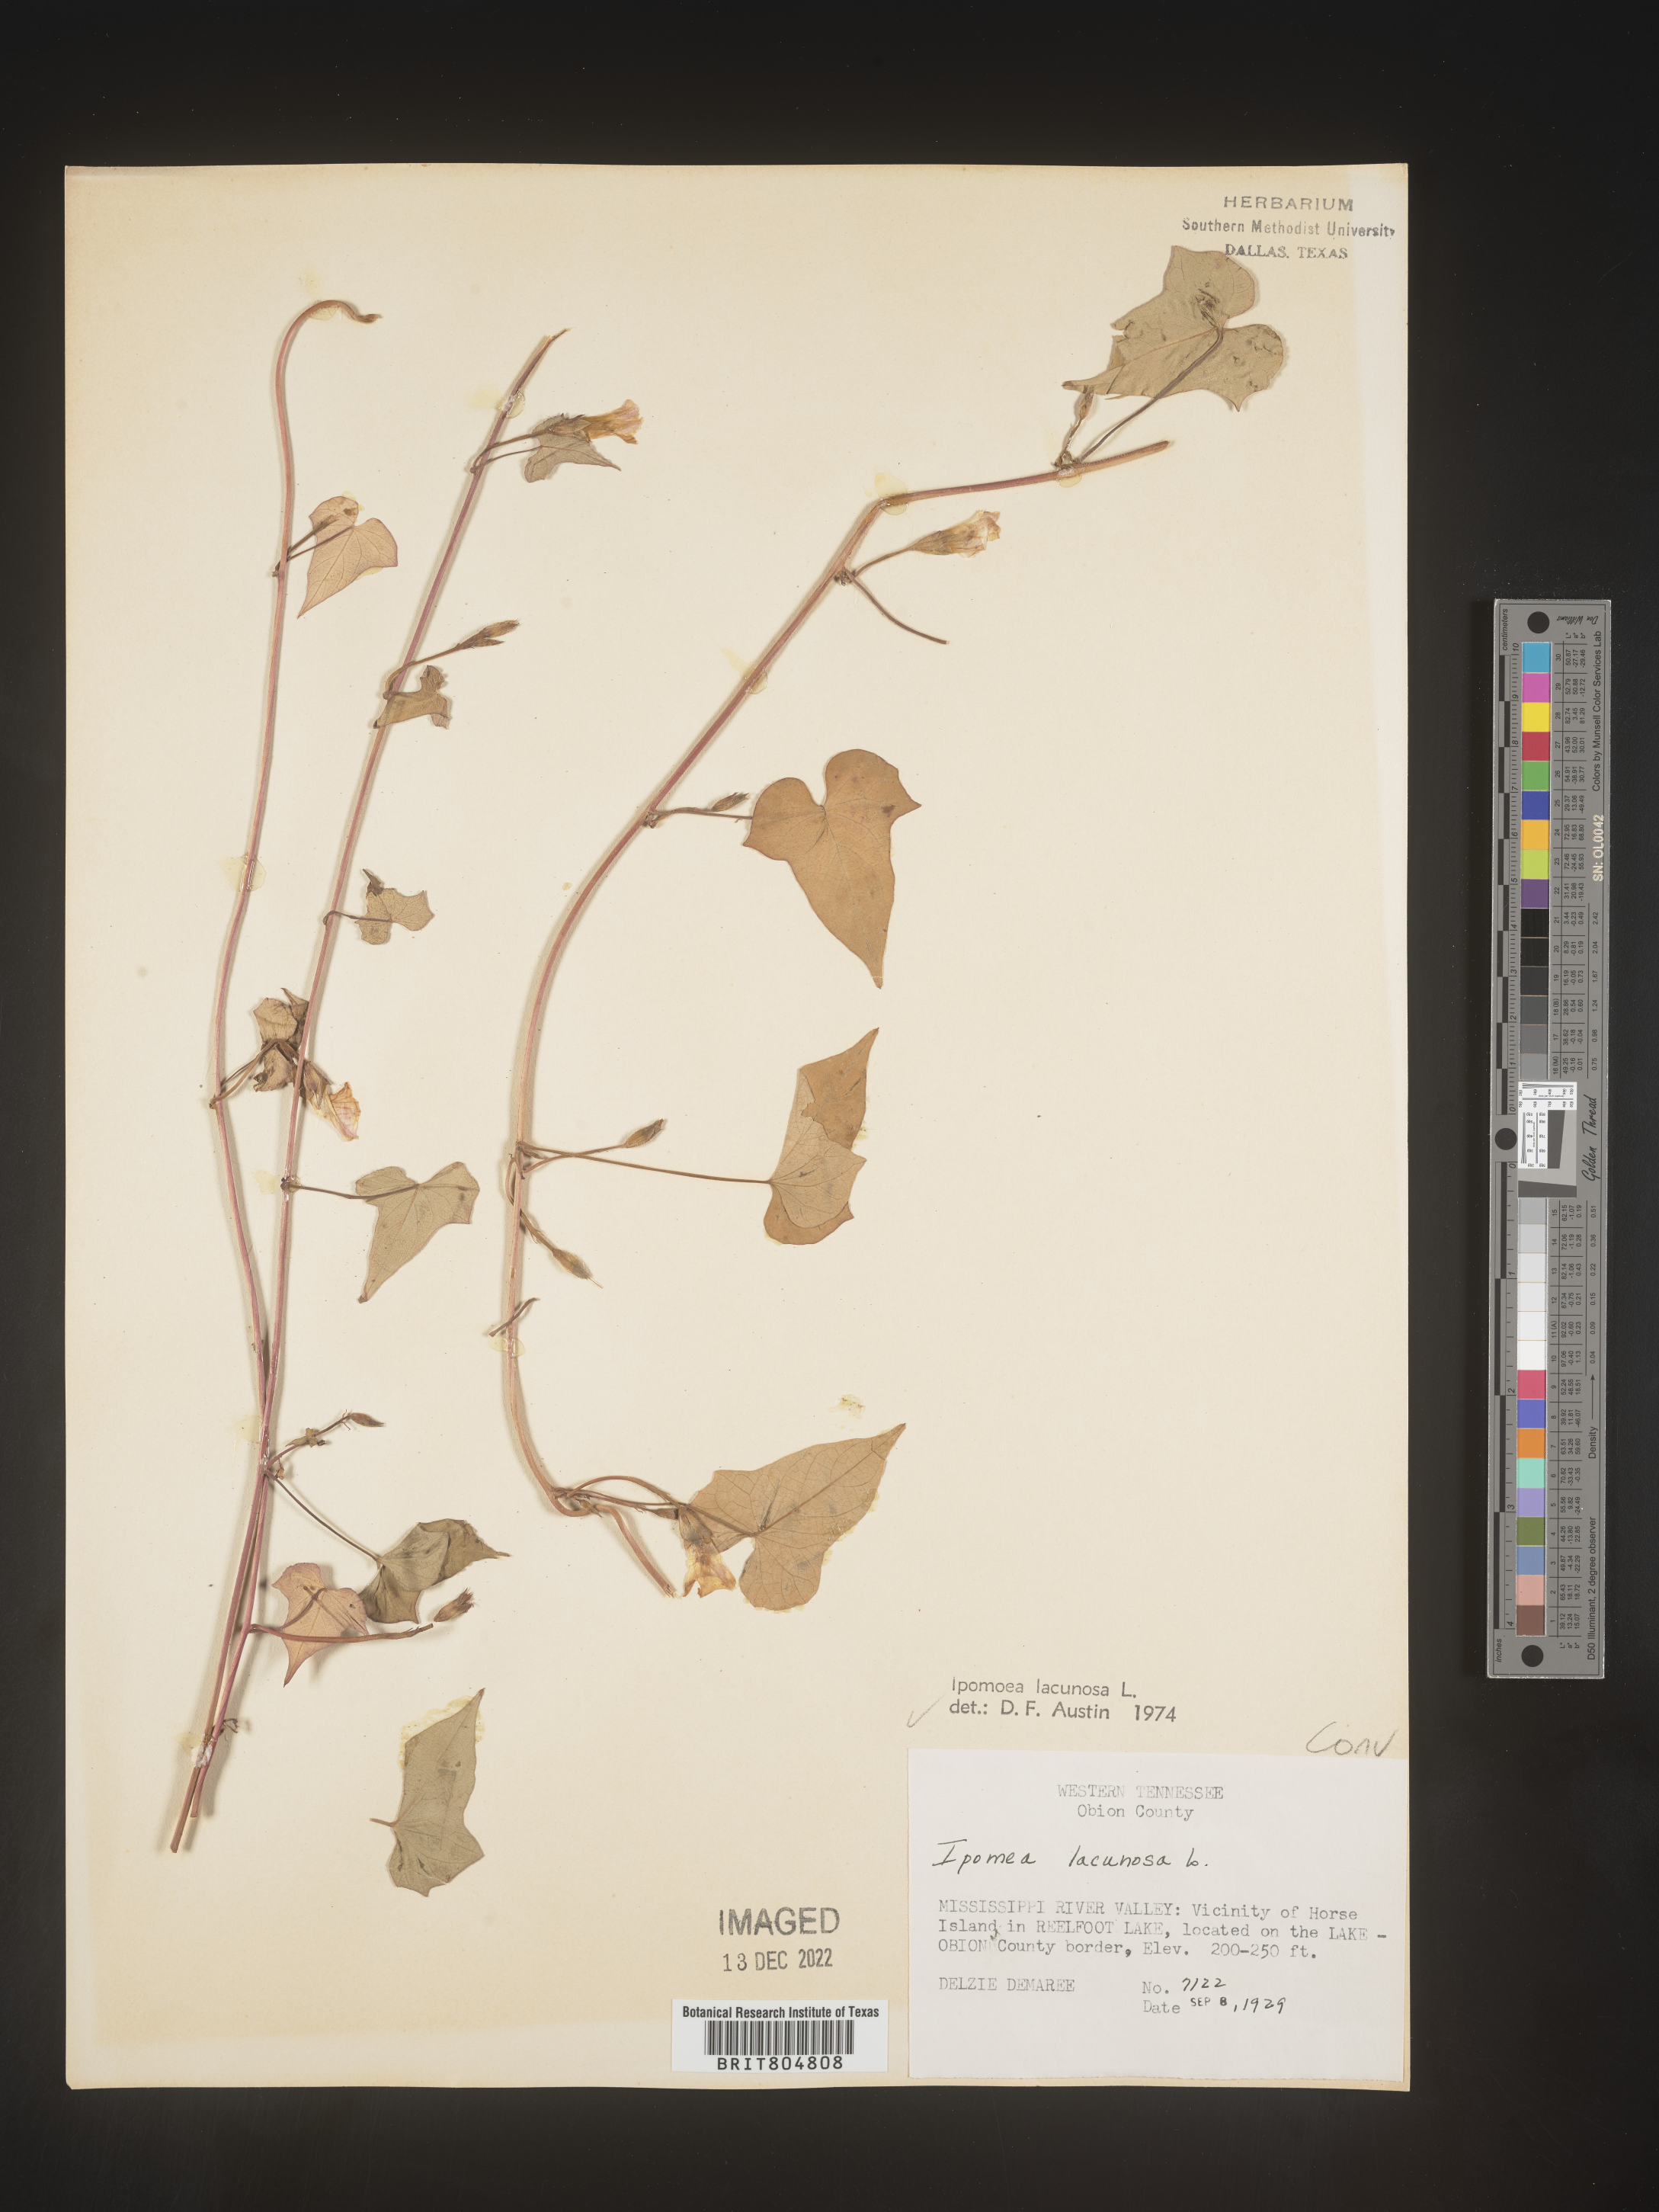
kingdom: Plantae
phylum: Tracheophyta
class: Magnoliopsida
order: Solanales
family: Convolvulaceae
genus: Ipomoea
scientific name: Ipomoea lacunosa
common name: White morning-glory
